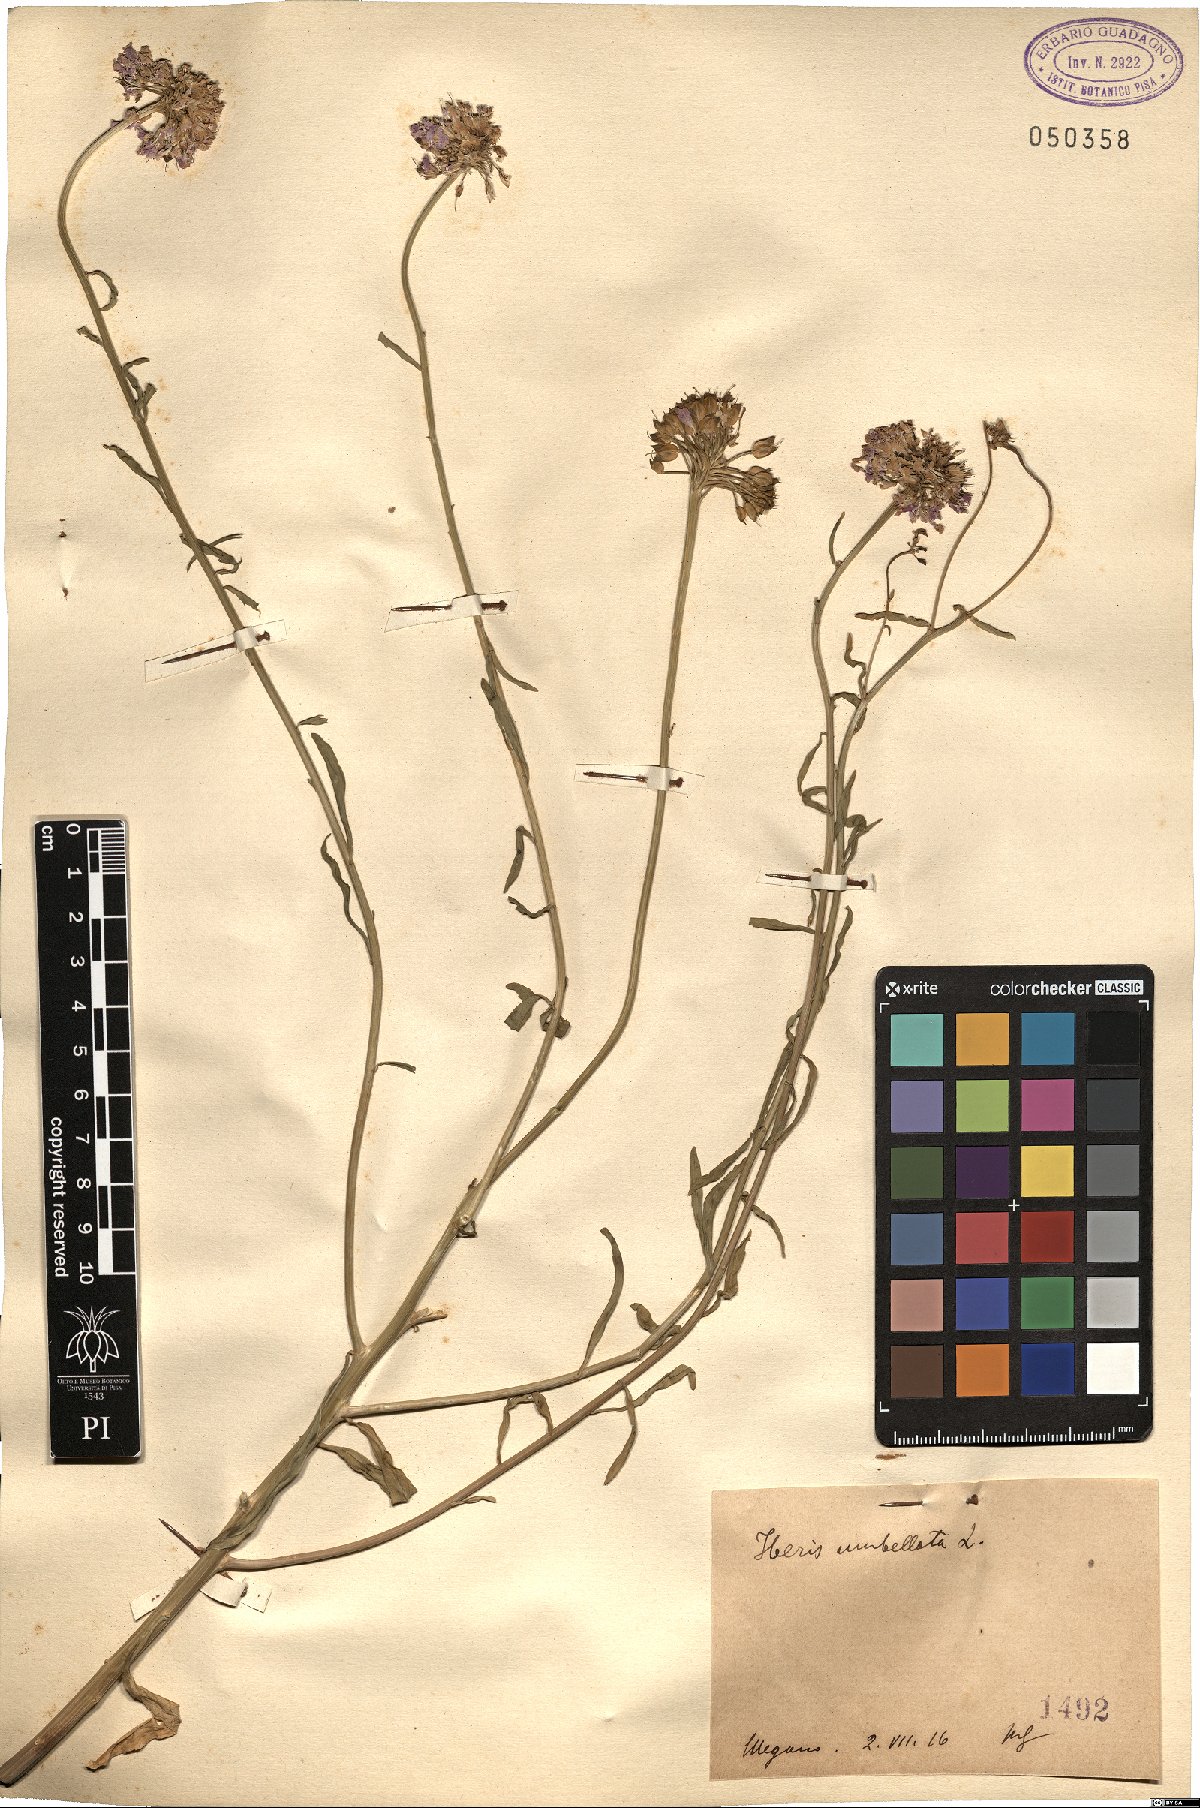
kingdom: Plantae
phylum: Tracheophyta
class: Magnoliopsida
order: Brassicales
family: Brassicaceae
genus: Iberis
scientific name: Iberis umbellata
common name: Globe candytuft
